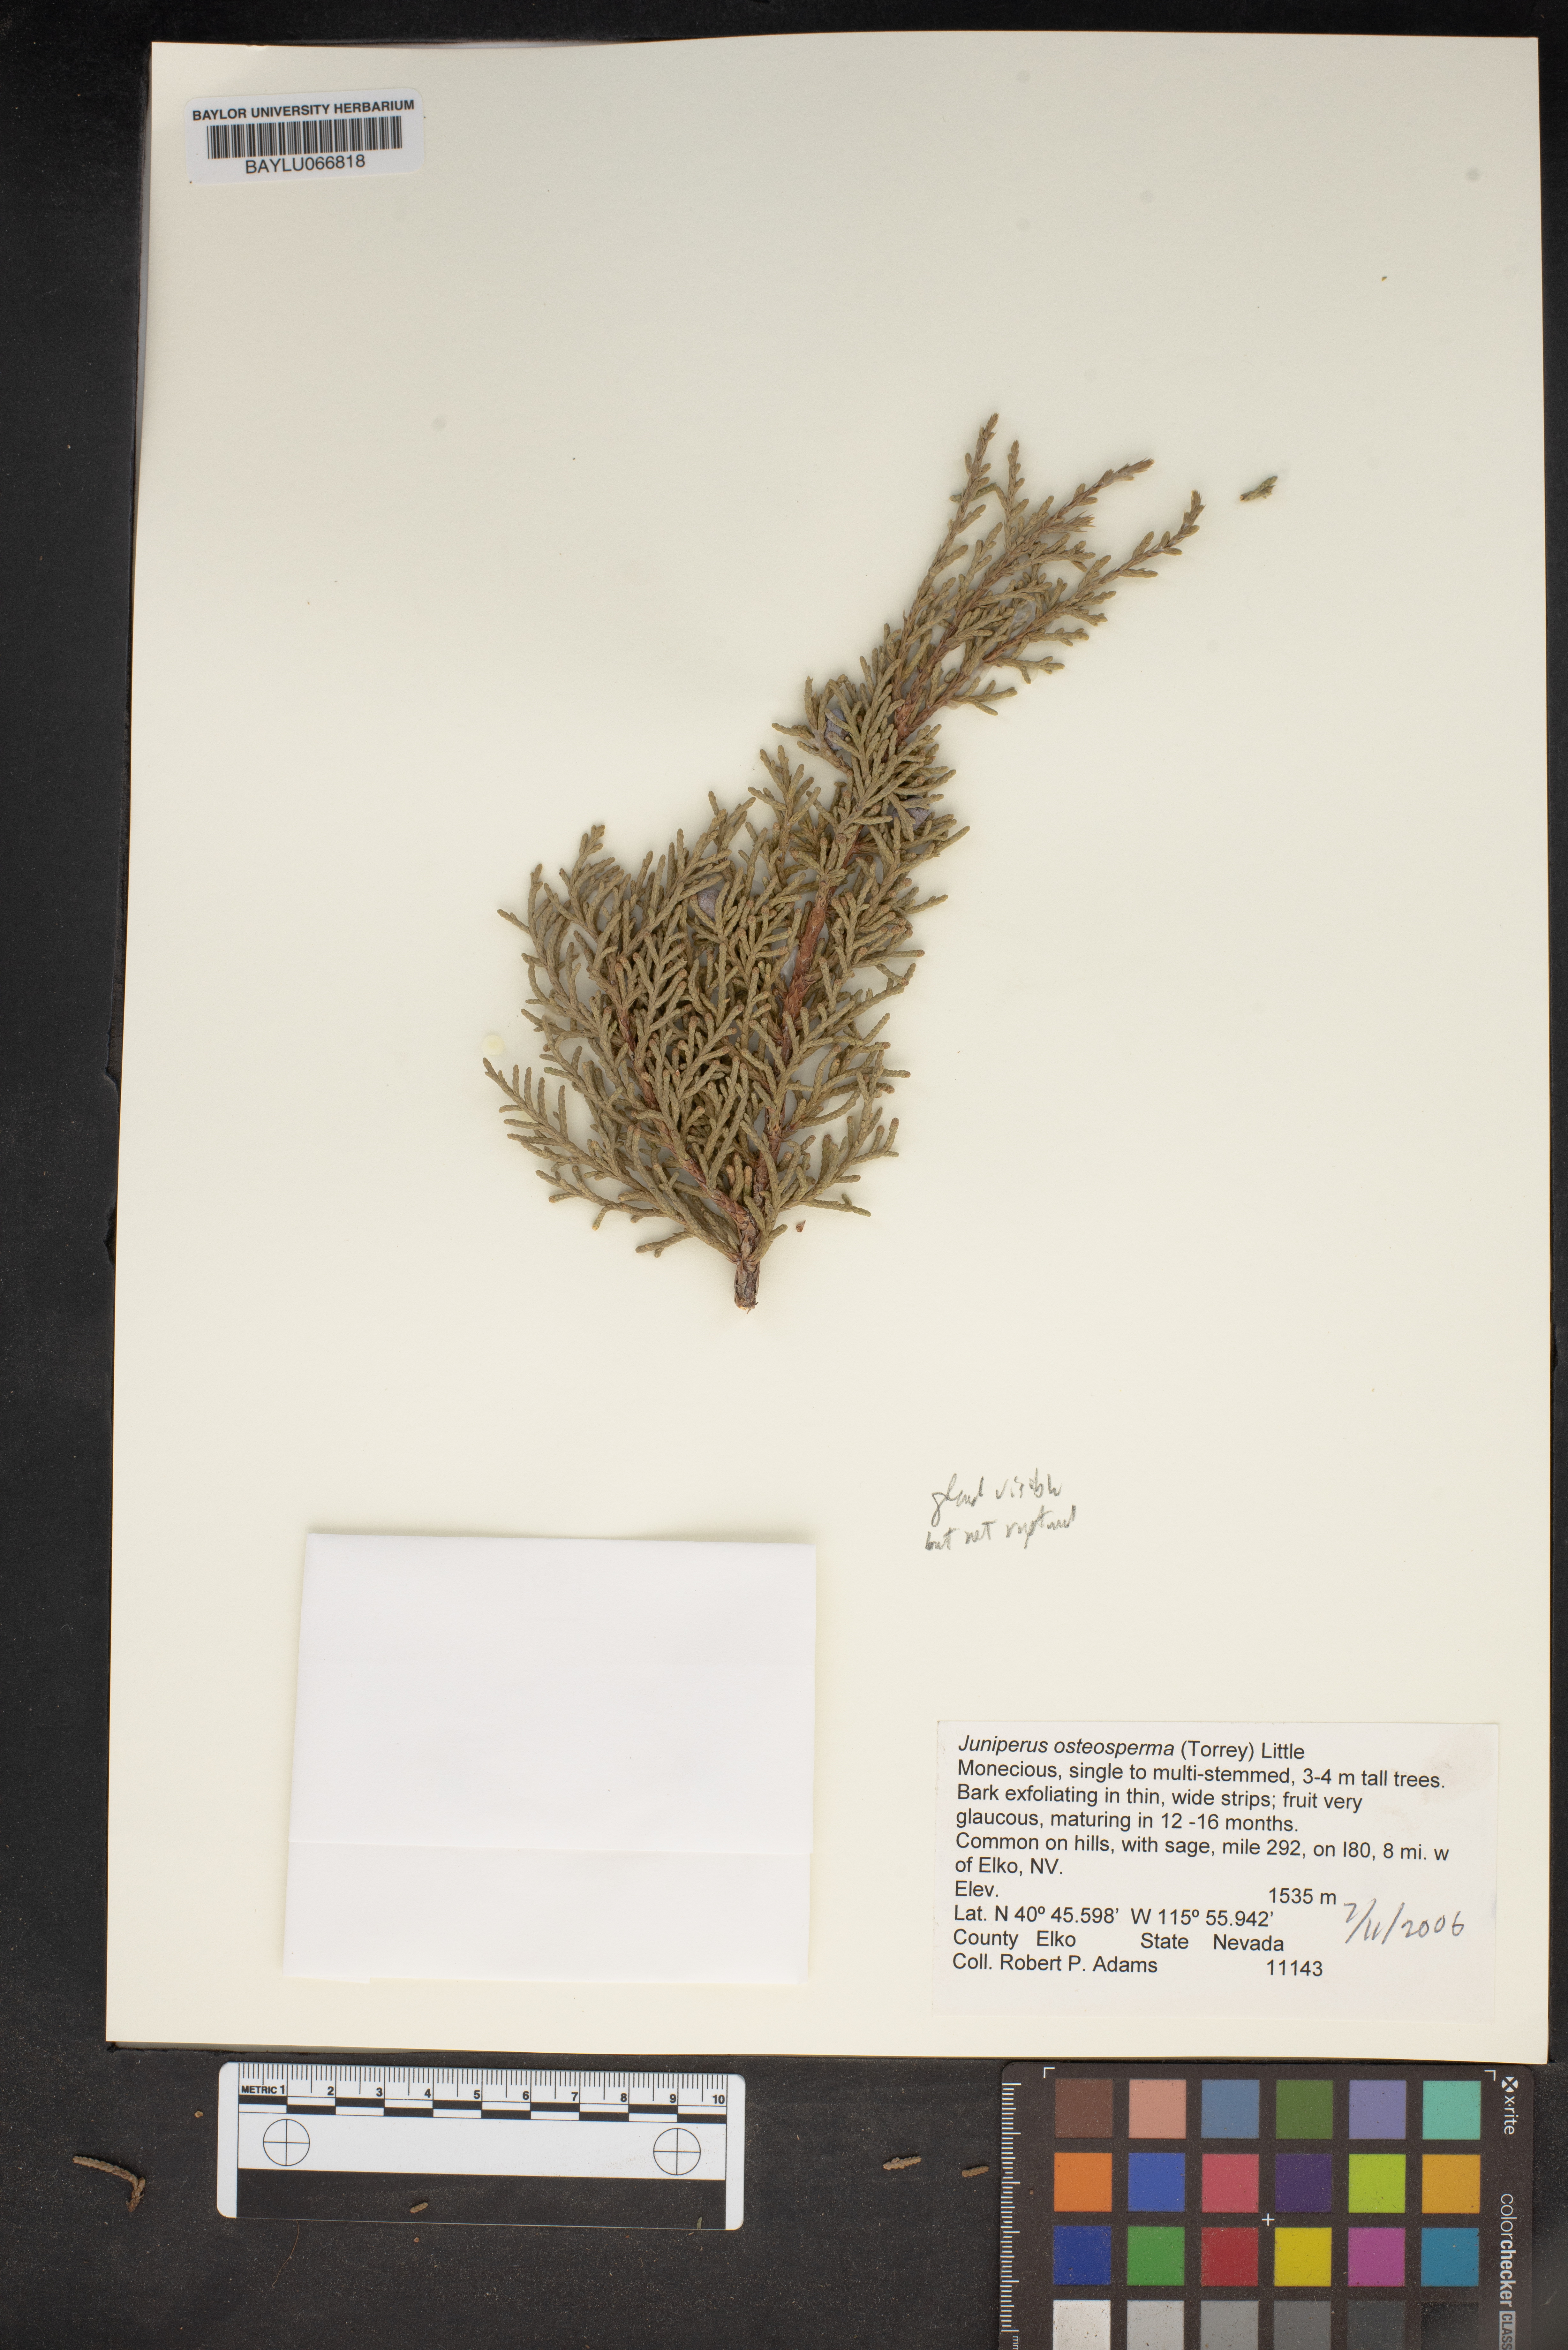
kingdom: Plantae
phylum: Tracheophyta
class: Pinopsida
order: Pinales
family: Cupressaceae
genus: Juniperus
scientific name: Juniperus osteosperma
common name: Utah juniper
